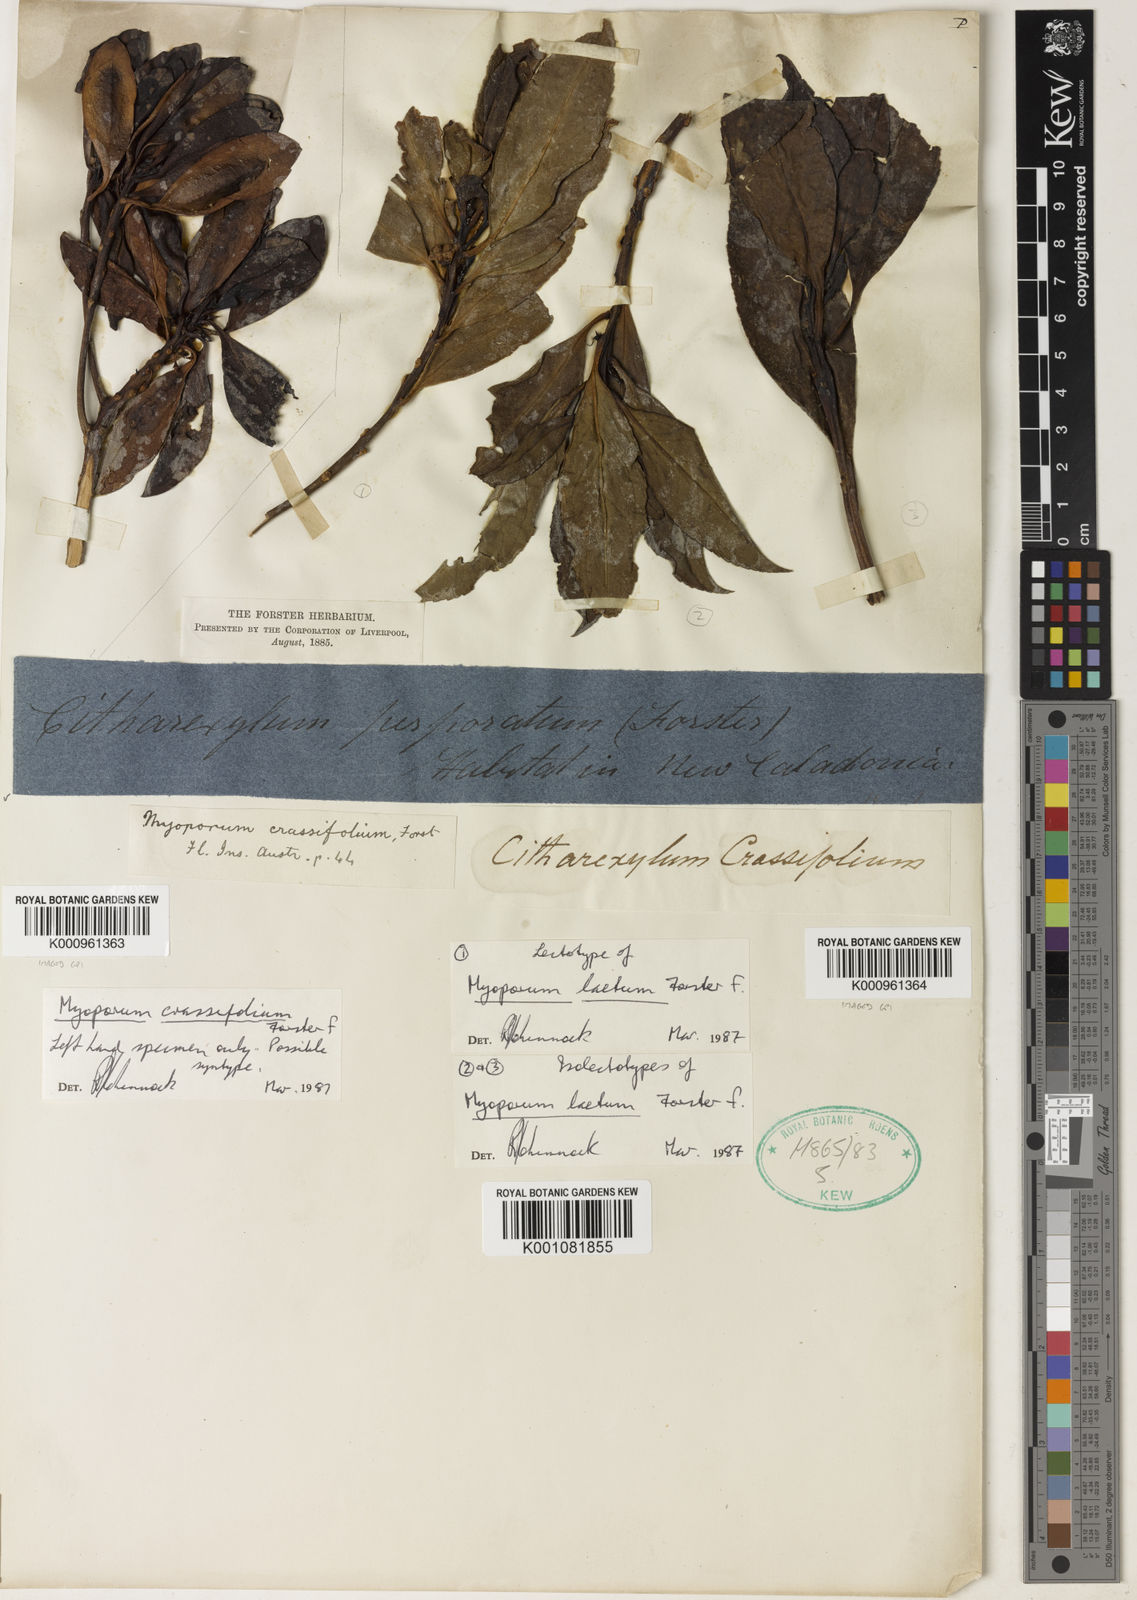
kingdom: Plantae
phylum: Tracheophyta
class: Magnoliopsida
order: Lamiales
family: Scrophulariaceae
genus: Myoporum
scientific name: Myoporum laetum
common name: Ngaio tree
